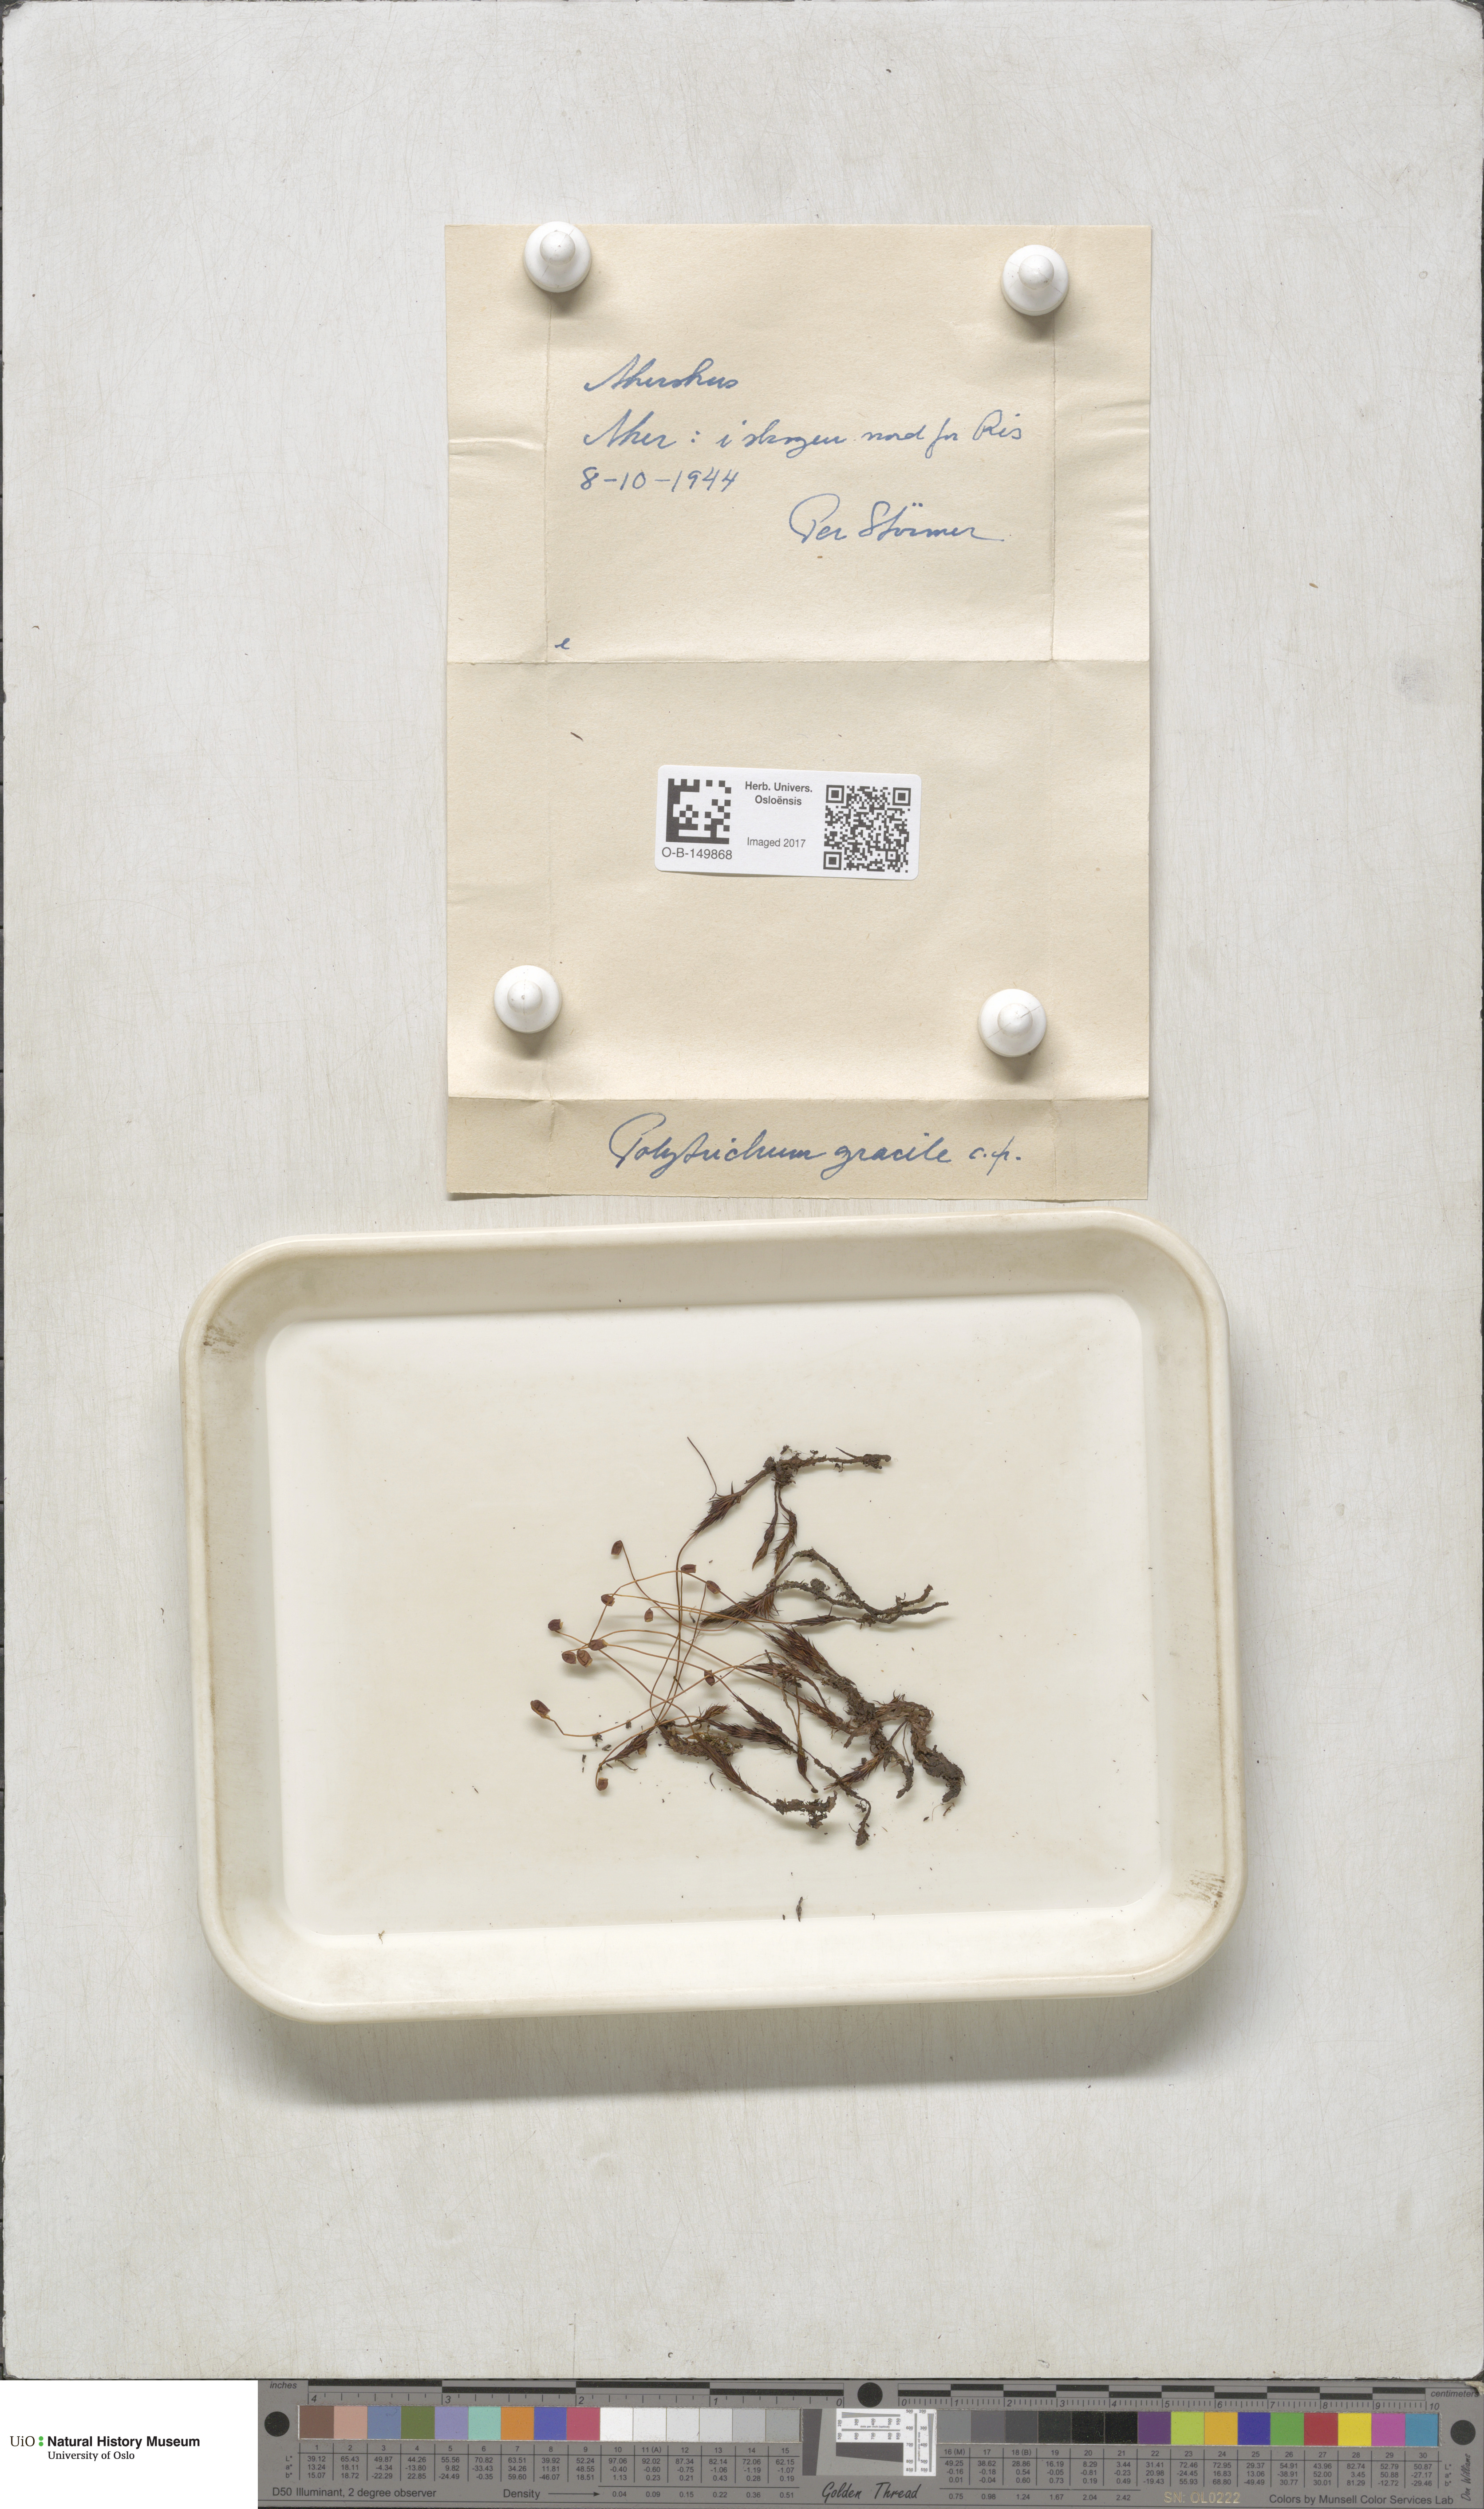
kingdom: Plantae
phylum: Bryophyta
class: Polytrichopsida
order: Polytrichales
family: Polytrichaceae
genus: Polytrichum
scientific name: Polytrichum longisetum
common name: Long-stalked haircap moss
